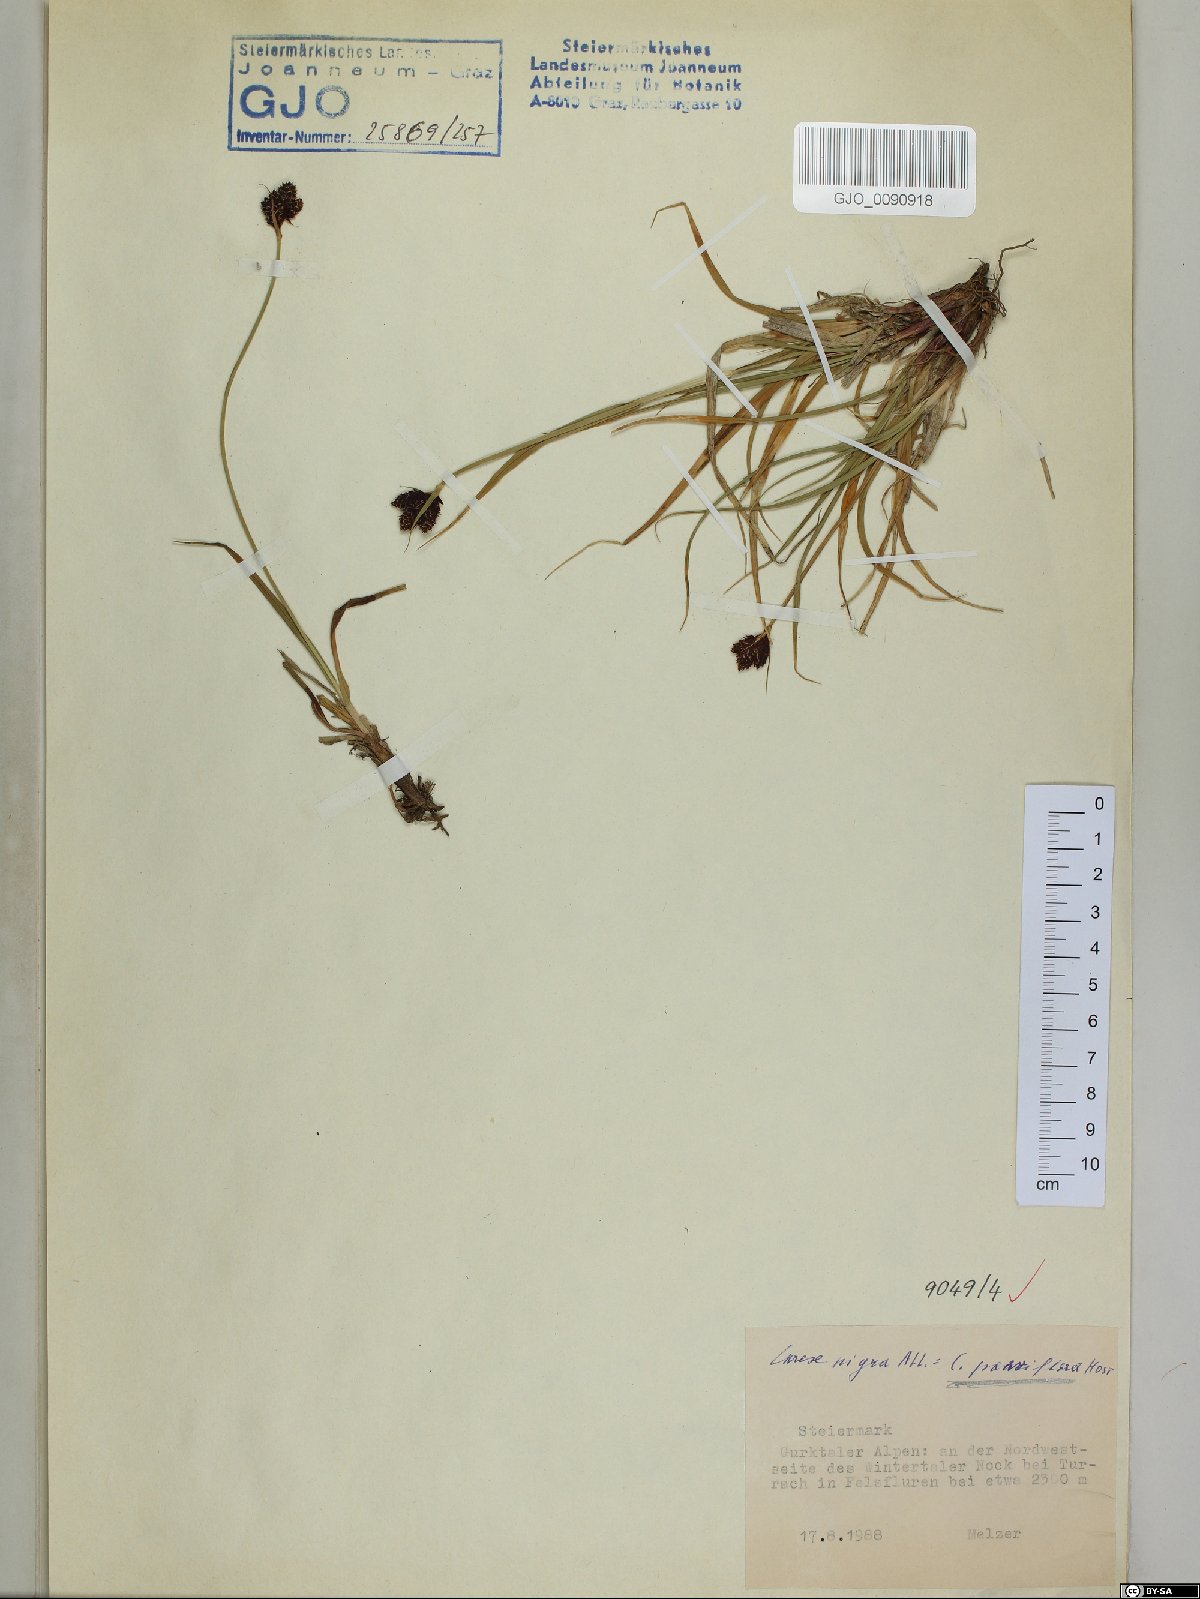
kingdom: Plantae
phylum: Tracheophyta
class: Liliopsida
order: Poales
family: Cyperaceae
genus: Carex
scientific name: Carex parviflora
